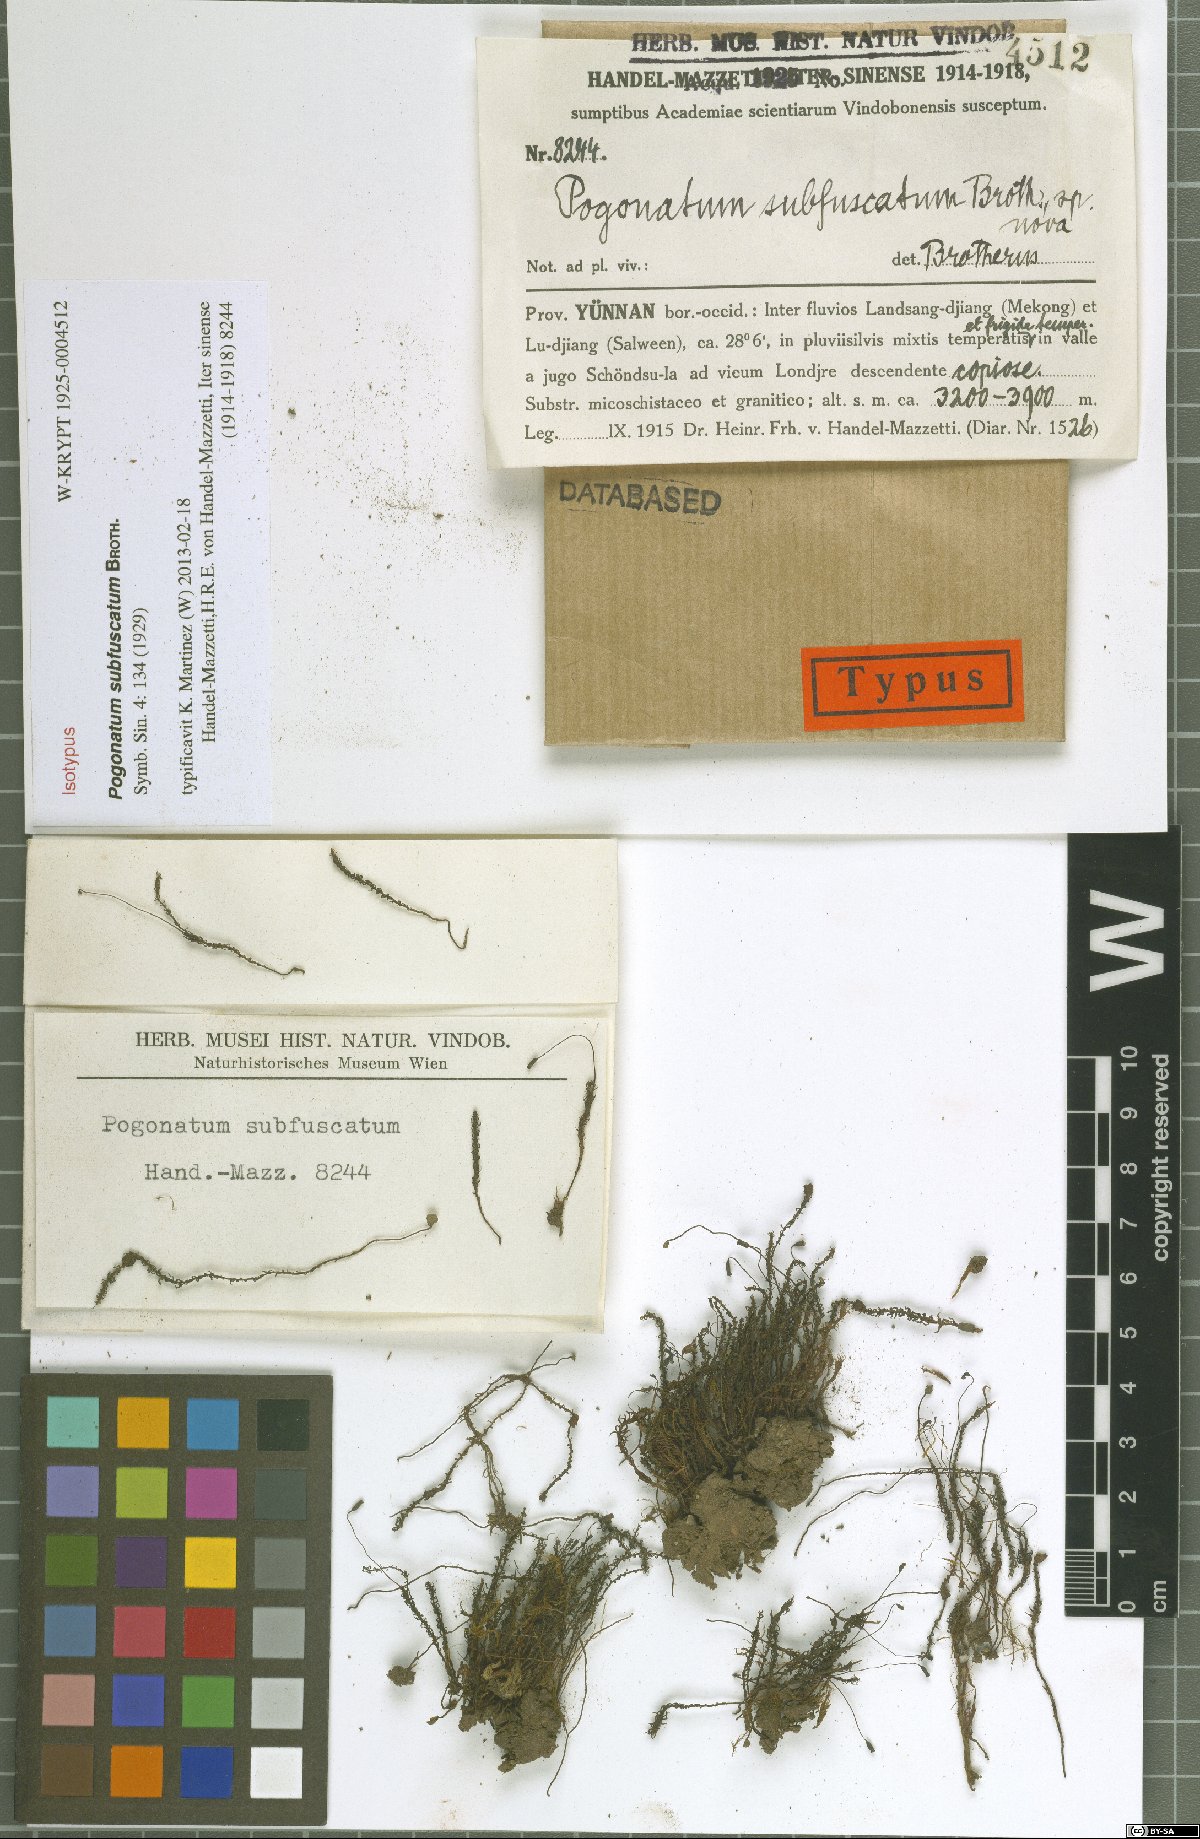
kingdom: Plantae
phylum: Bryophyta
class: Polytrichopsida
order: Polytrichales
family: Polytrichaceae
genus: Pogonatum
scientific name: Pogonatum subfuscatum
